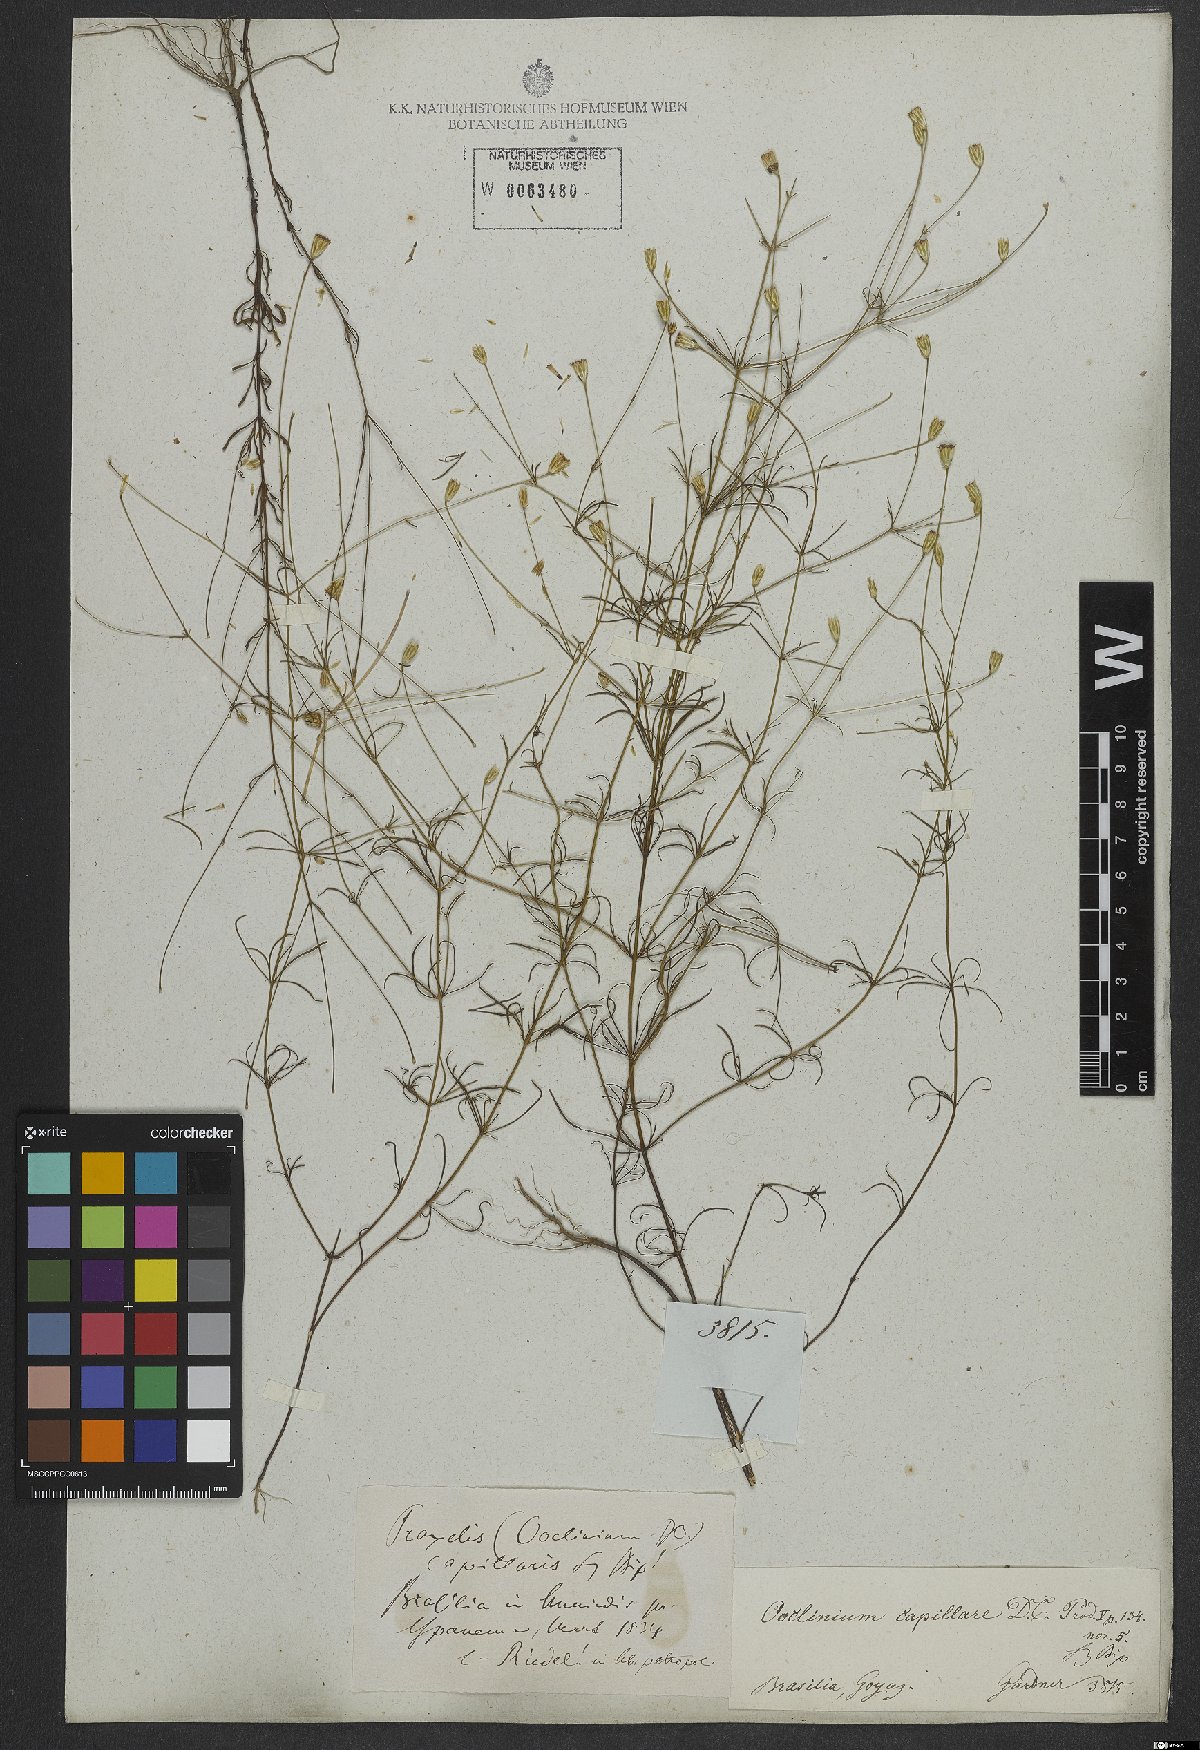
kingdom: Plantae
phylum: Tracheophyta
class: Magnoliopsida
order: Asterales
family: Asteraceae
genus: Praxelis
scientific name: Praxelis capillaris
